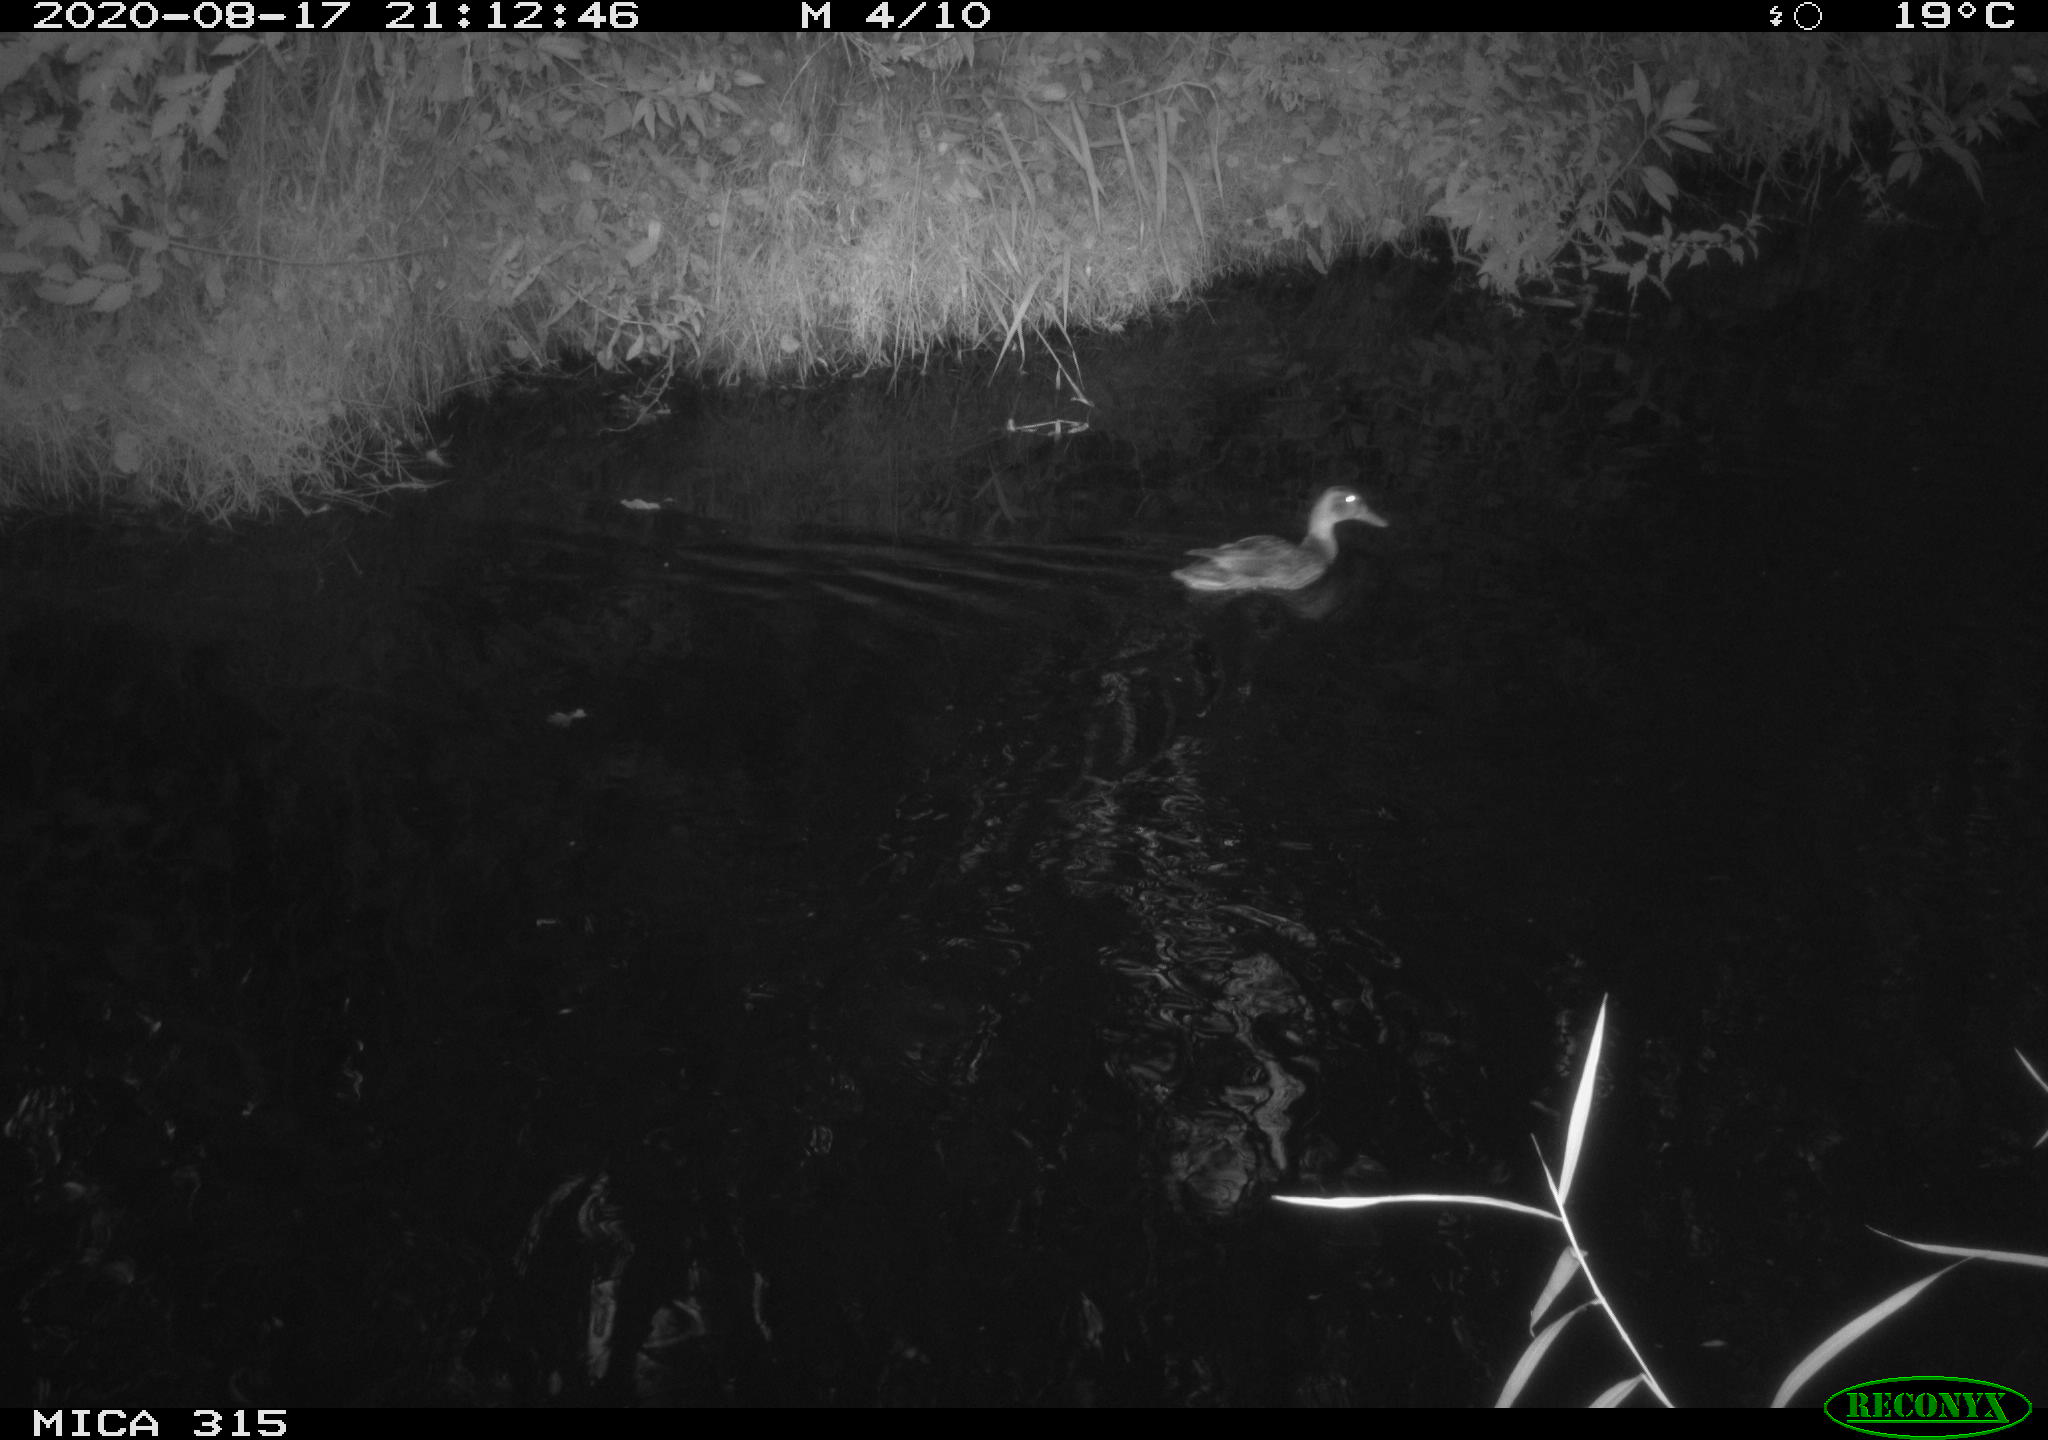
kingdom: Animalia
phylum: Chordata
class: Aves
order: Anseriformes
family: Anatidae
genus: Anas
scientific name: Anas platyrhynchos
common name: Mallard
